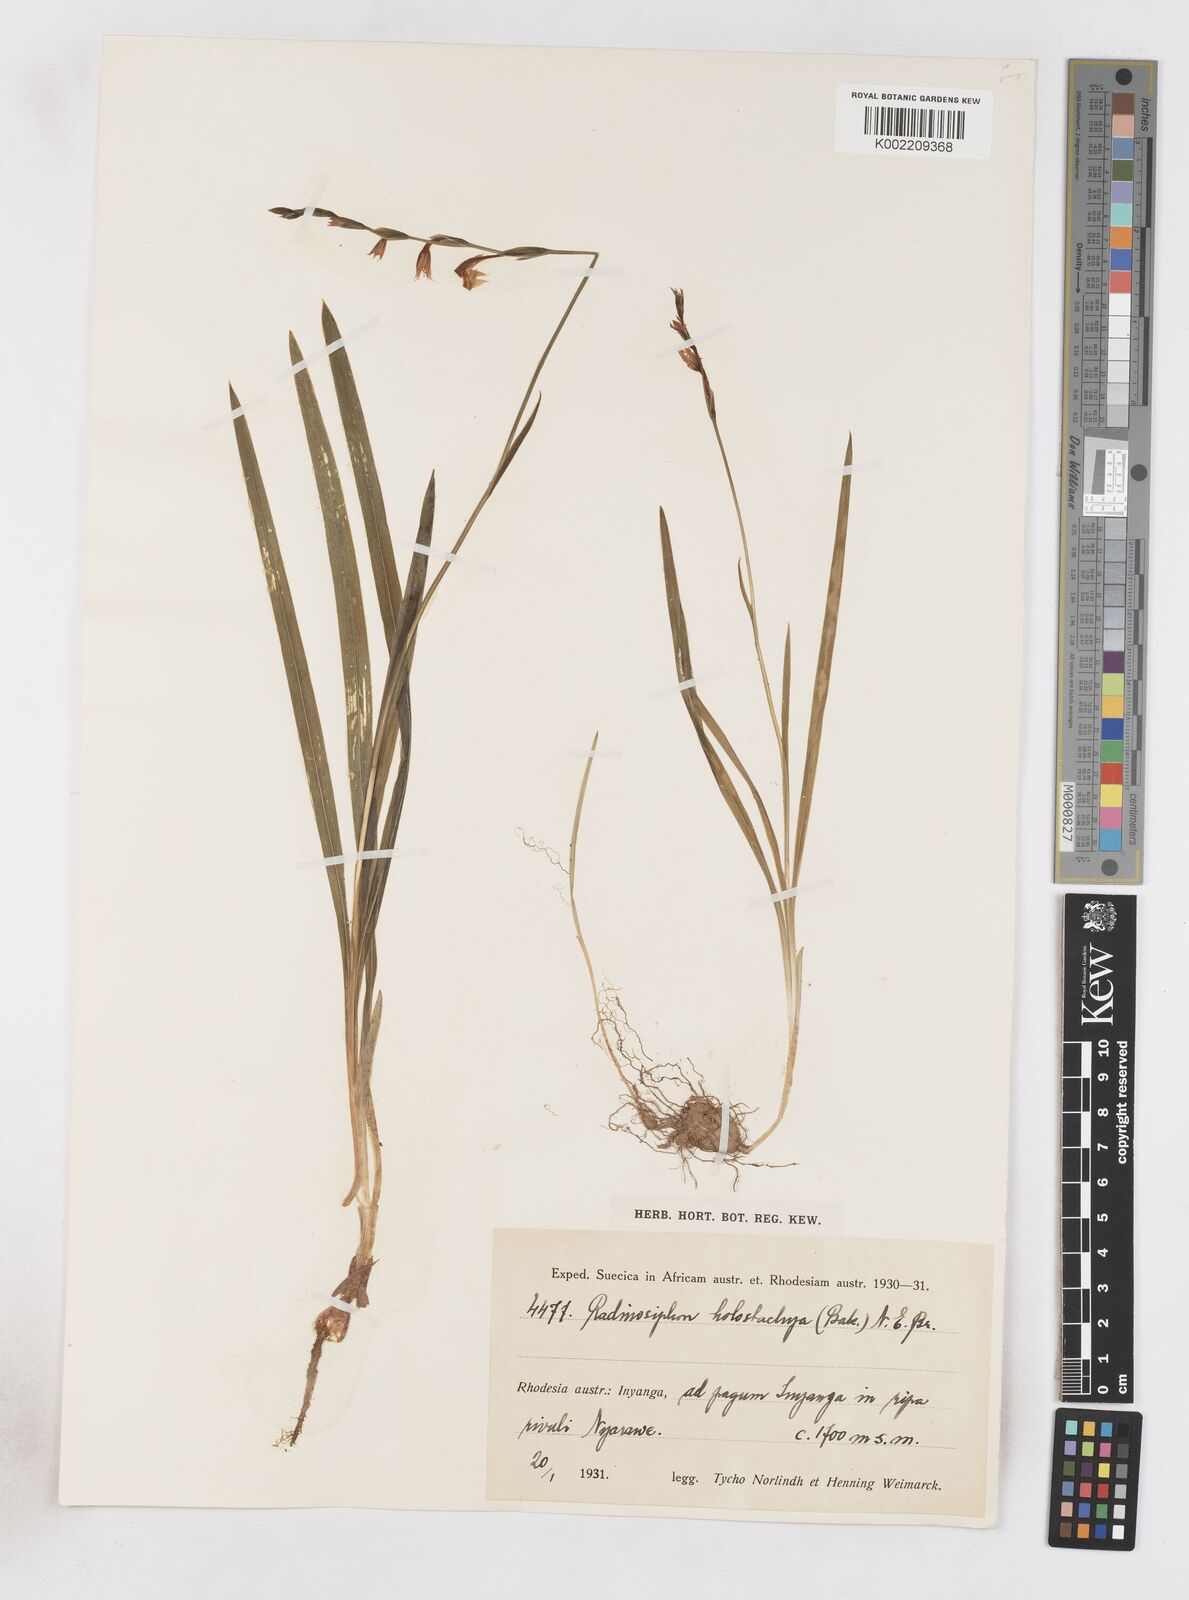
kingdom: Plantae
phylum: Tracheophyta
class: Liliopsida
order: Asparagales
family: Iridaceae
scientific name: Iridaceae
